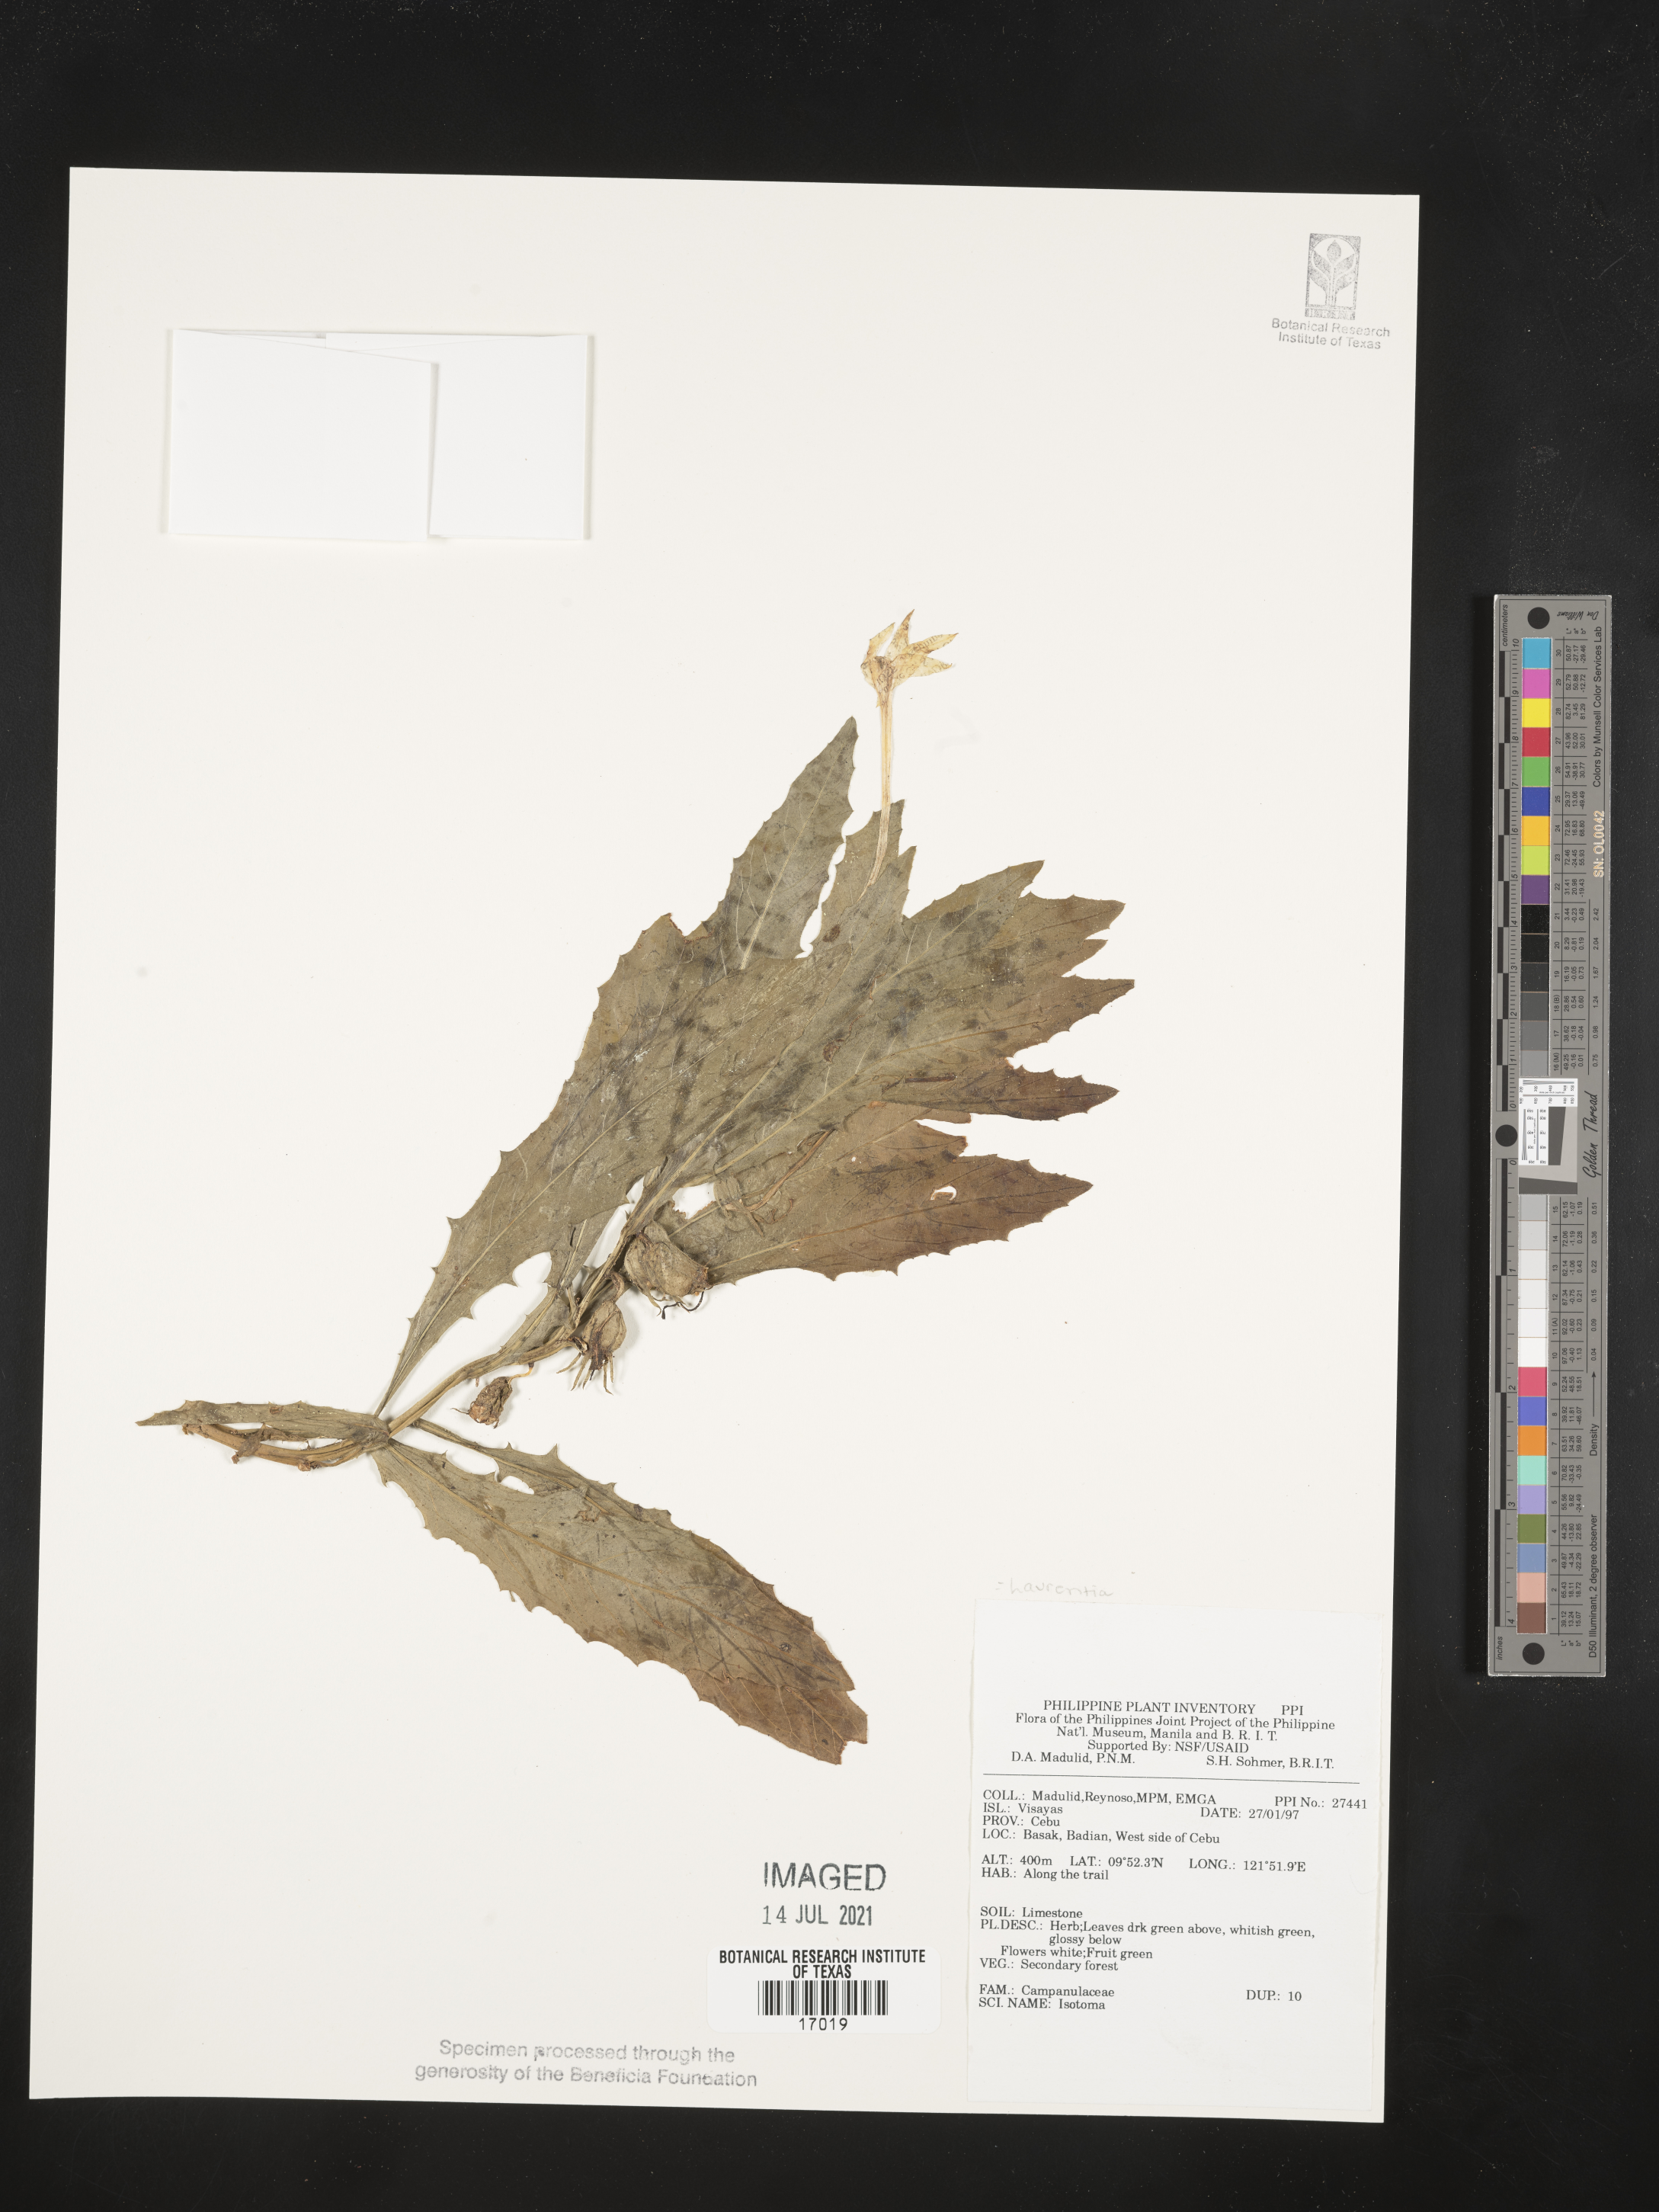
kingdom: Plantae
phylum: Tracheophyta
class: Magnoliopsida
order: Asterales
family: Campanulaceae
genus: Isotoma
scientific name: Isotoma
